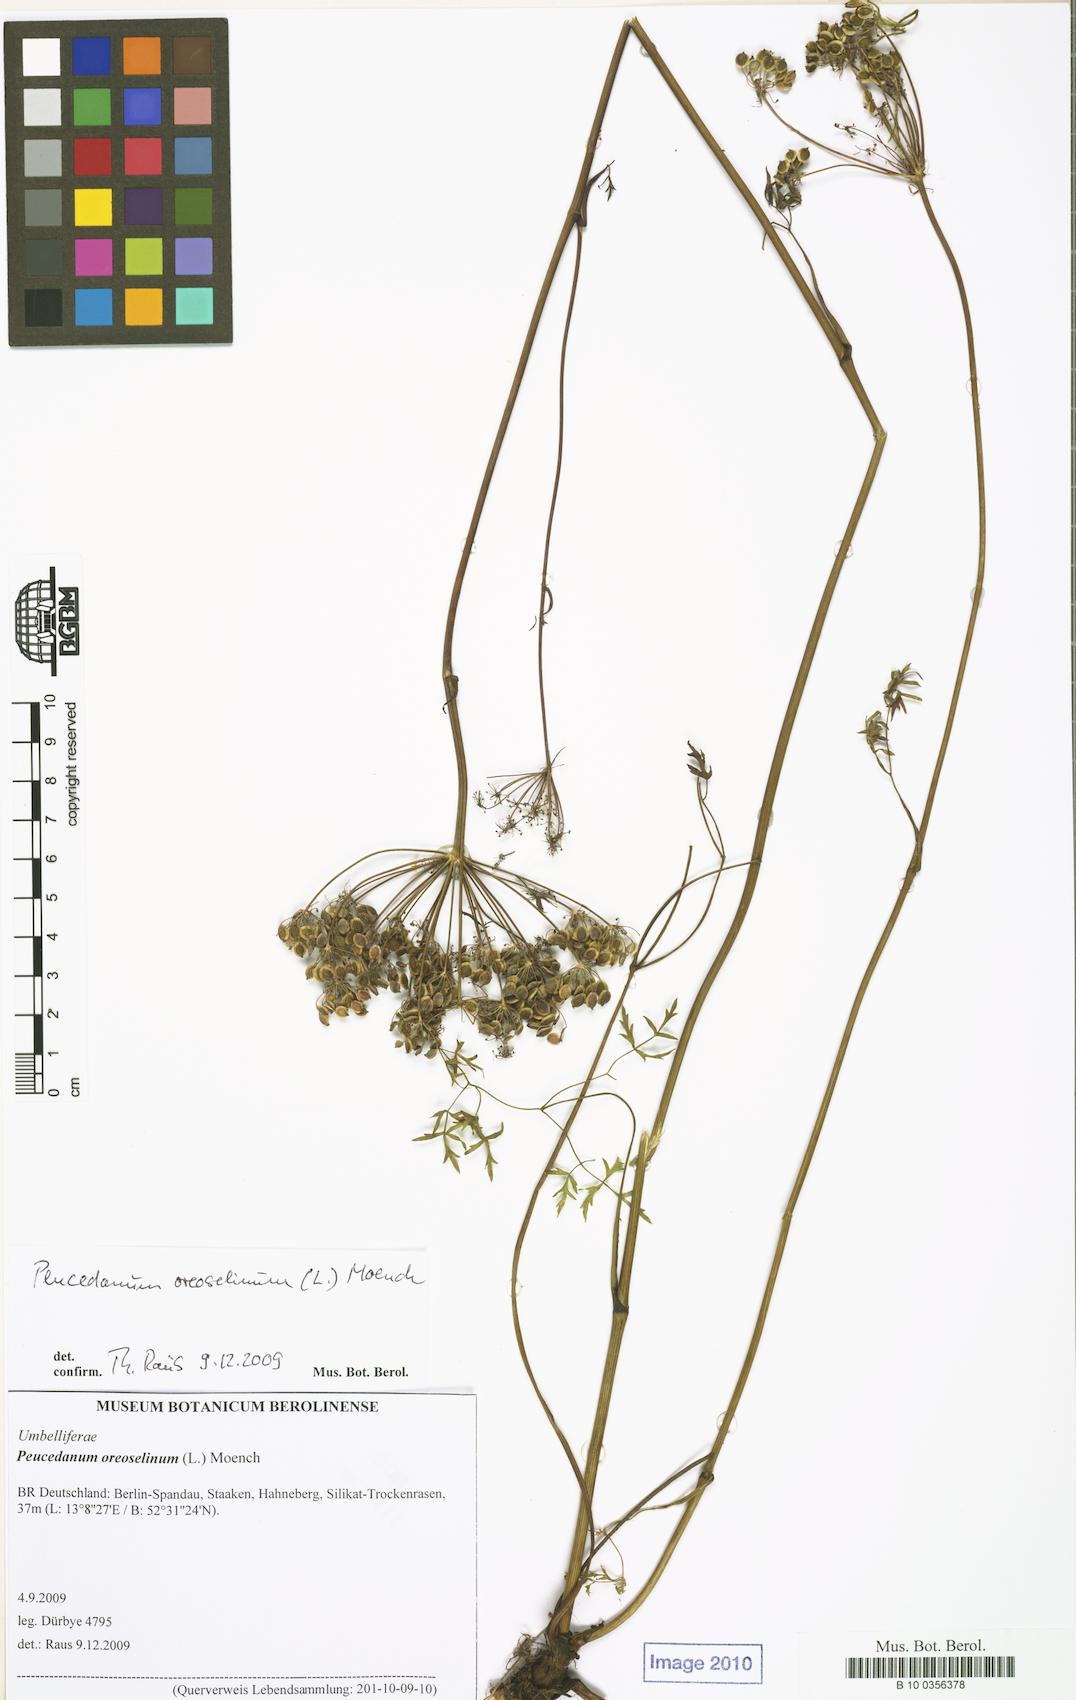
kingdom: Plantae
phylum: Tracheophyta
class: Magnoliopsida
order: Apiales
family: Apiaceae
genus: Oreoselinum
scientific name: Oreoselinum nigrum
